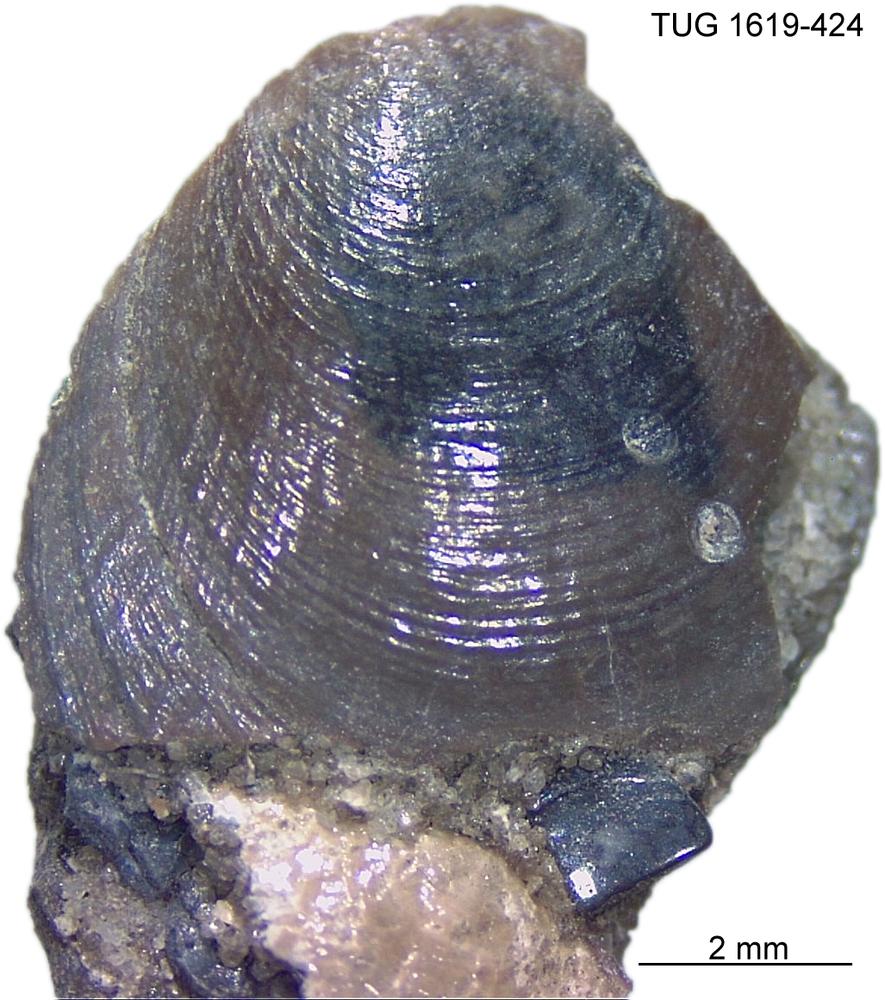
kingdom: Animalia
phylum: Porifera
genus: Ungula
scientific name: Ungula
